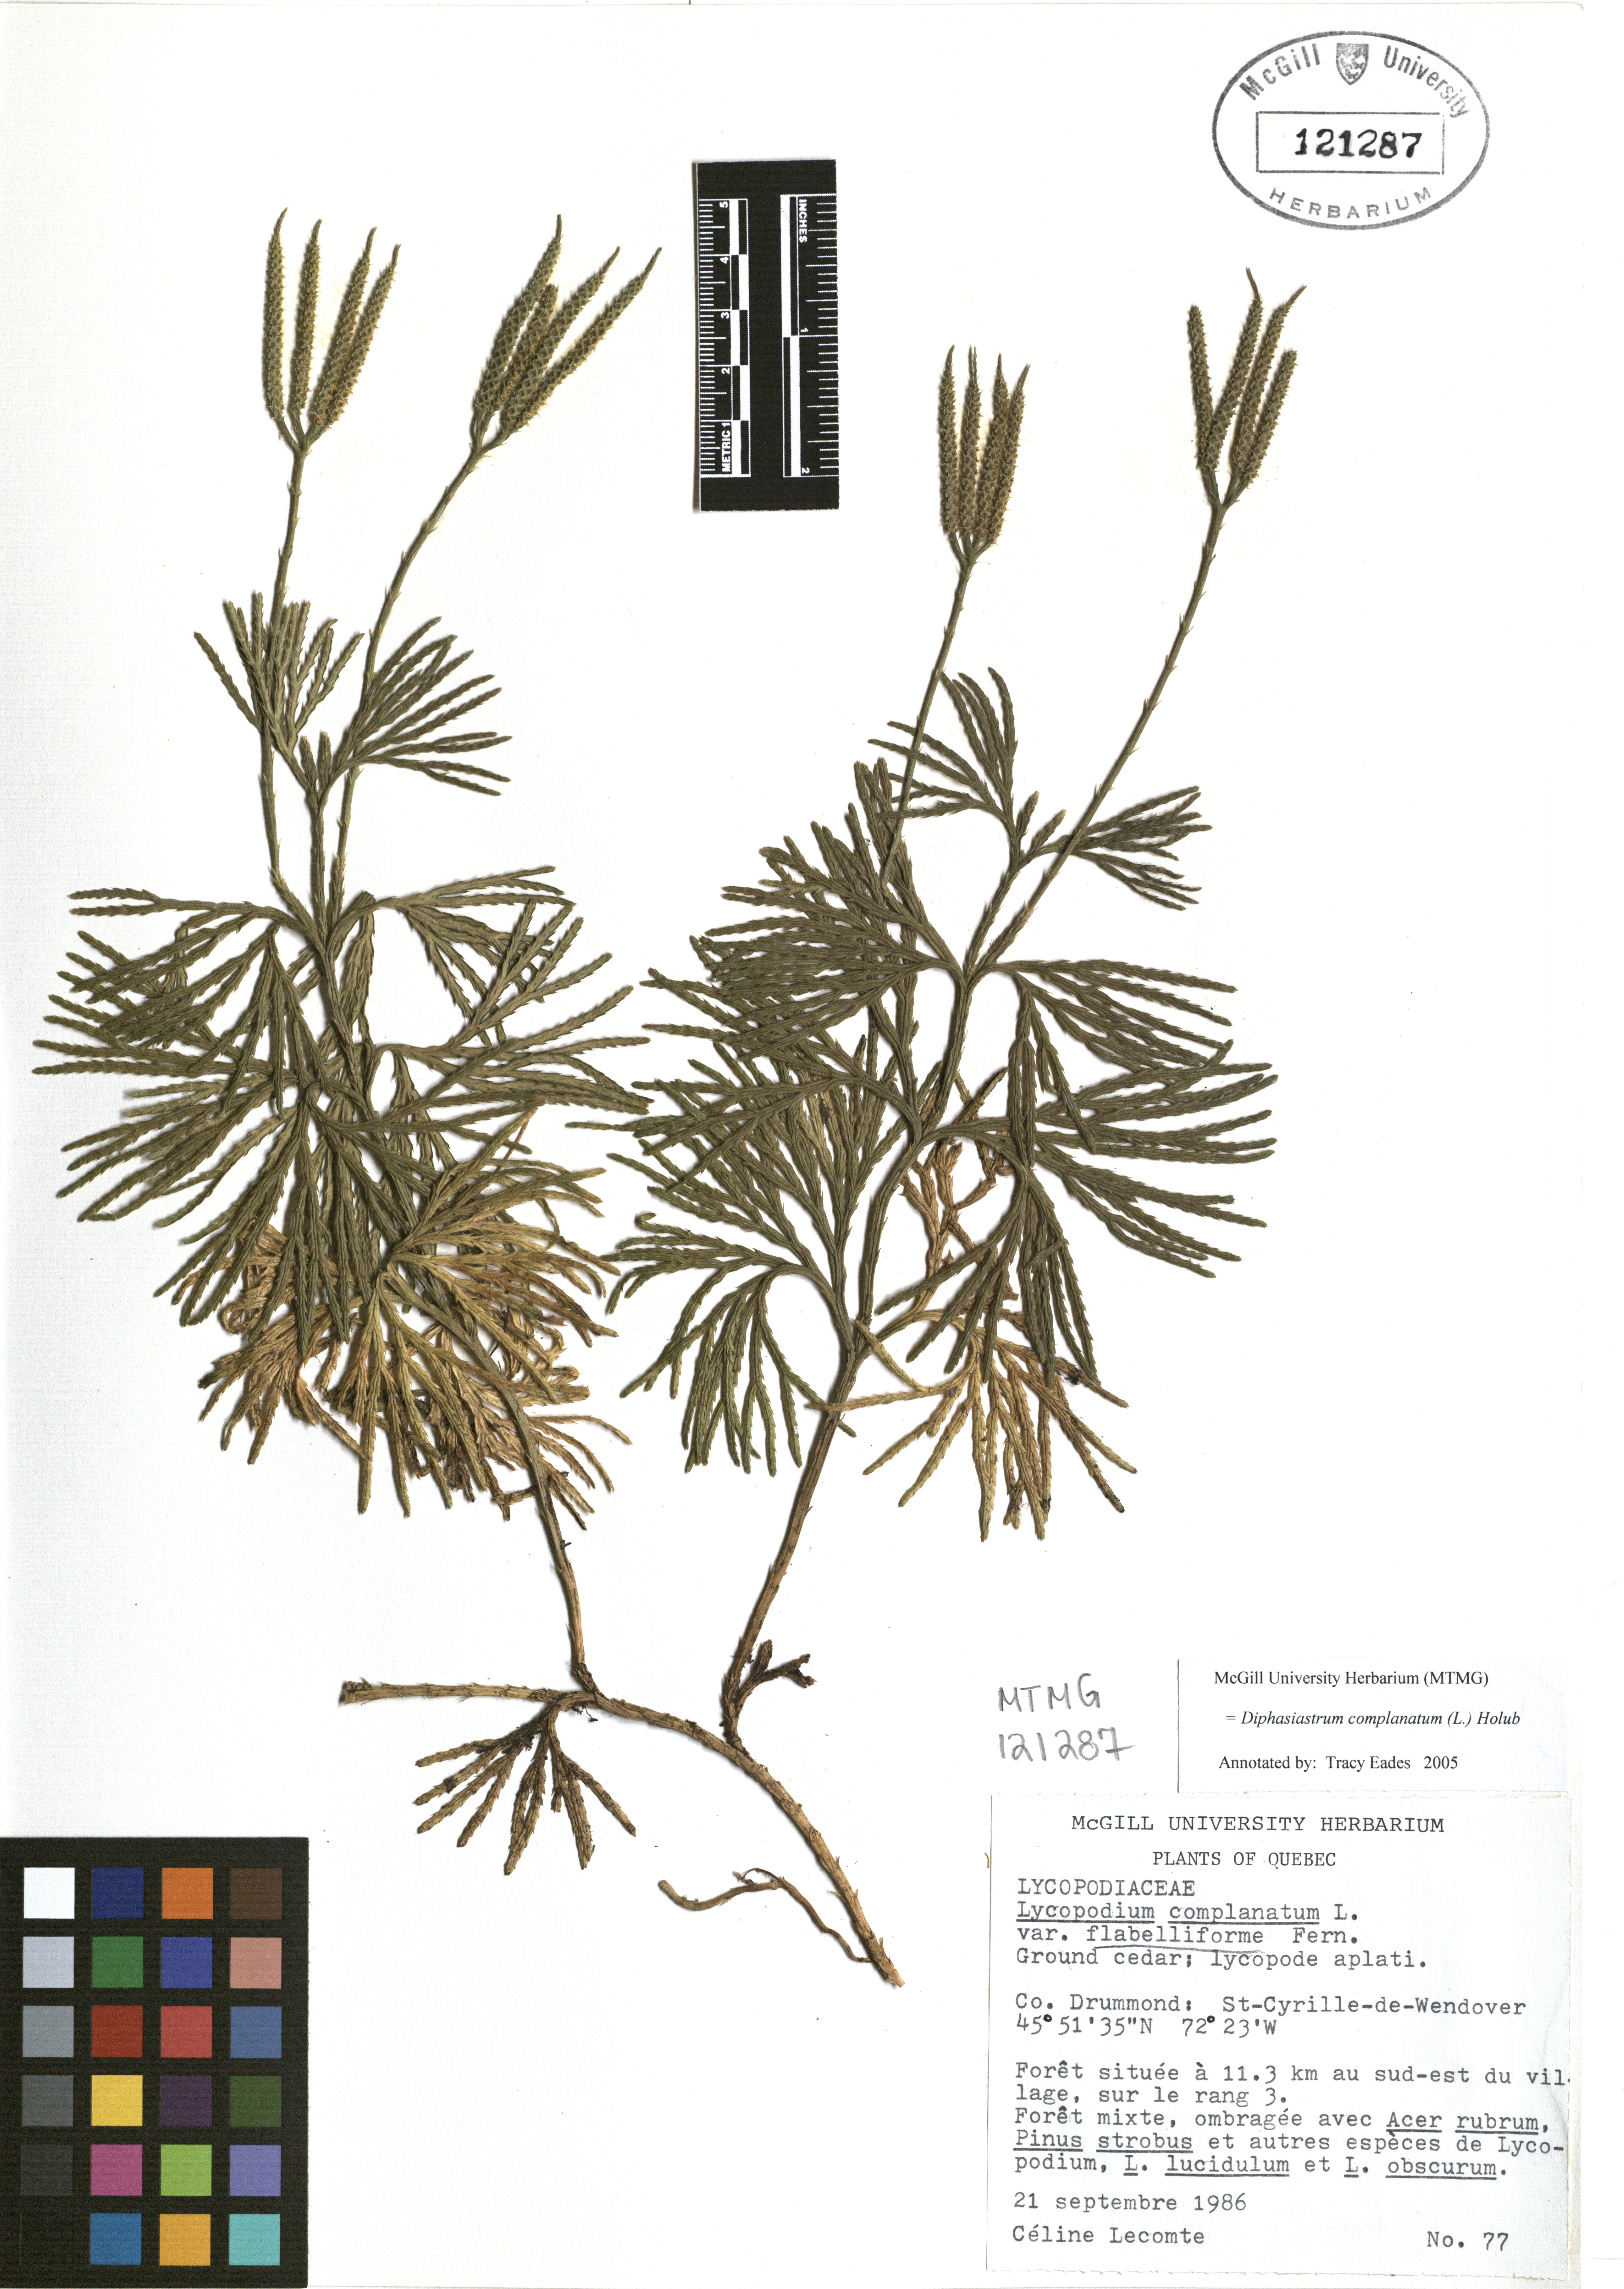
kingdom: Plantae
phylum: Tracheophyta
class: Lycopodiopsida
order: Lycopodiales
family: Lycopodiaceae
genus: Diphasiastrum
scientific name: Diphasiastrum complanatum
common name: Northern running-pine
